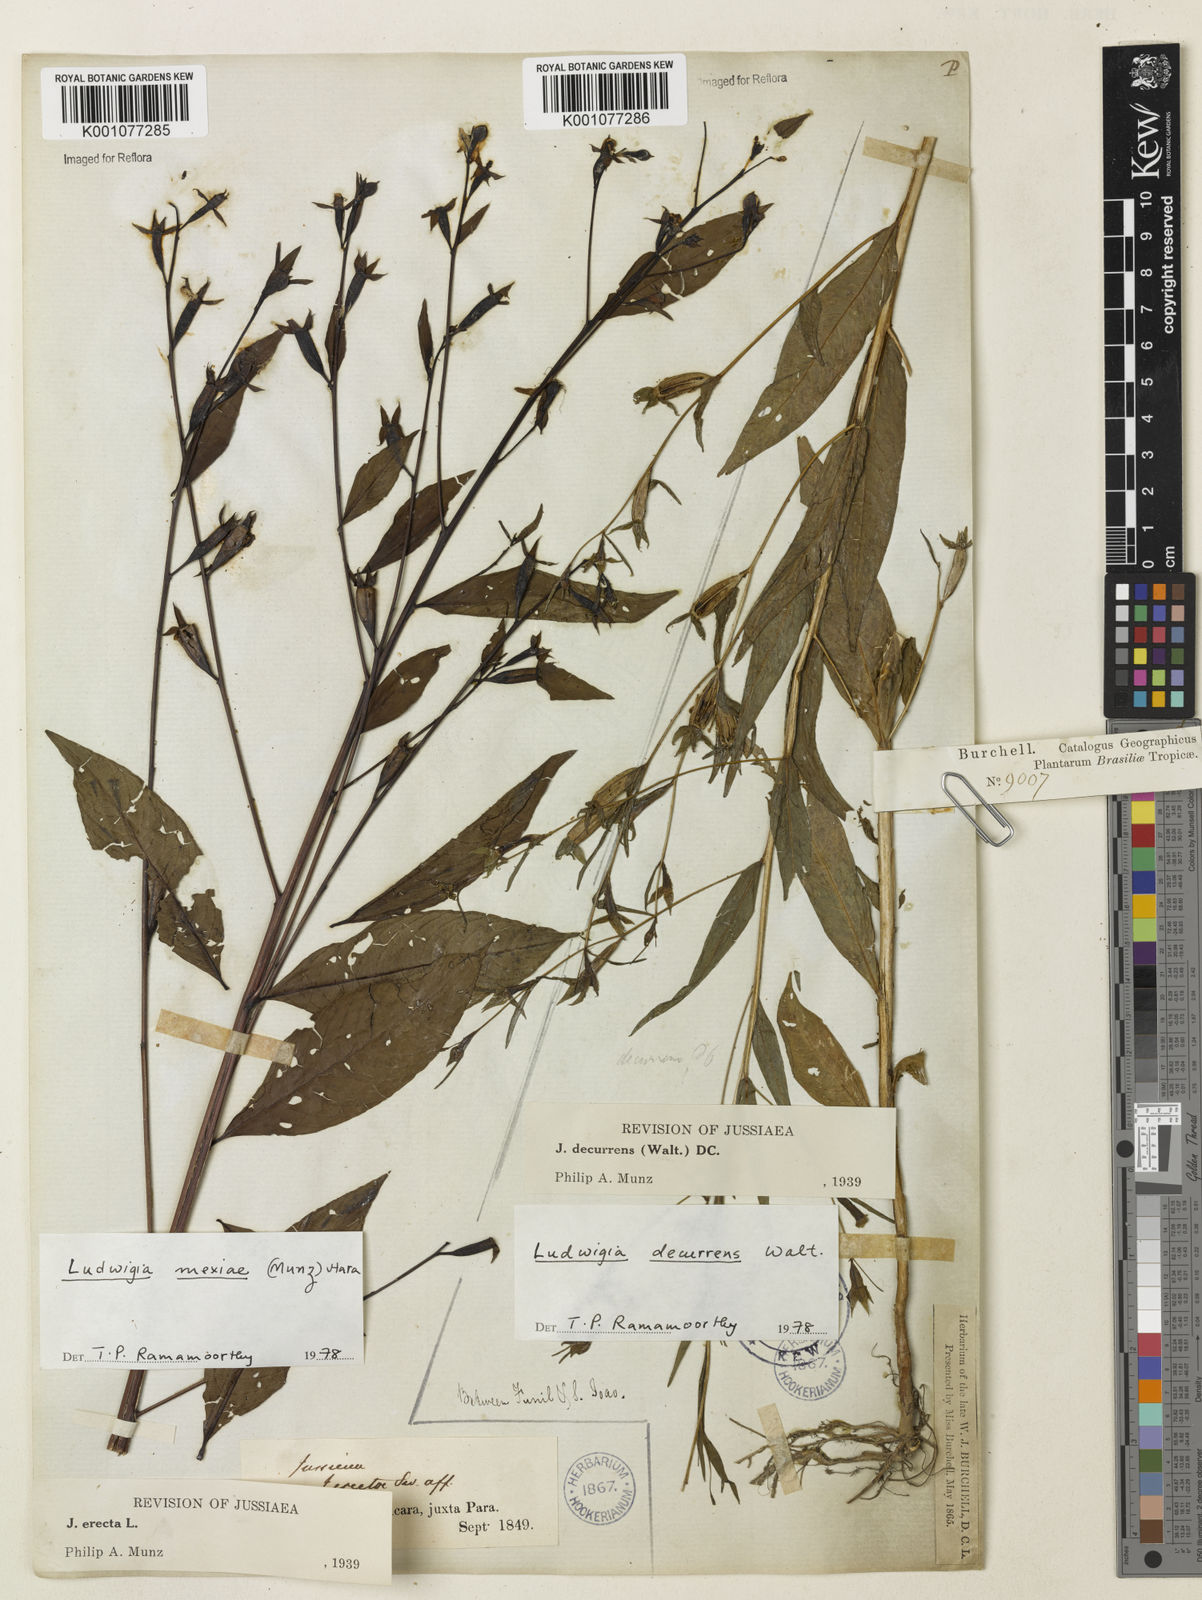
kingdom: Plantae
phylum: Tracheophyta
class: Magnoliopsida
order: Myrtales
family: Onagraceae
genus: Ludwigia
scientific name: Ludwigia decurrens
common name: Winged water-primrose
